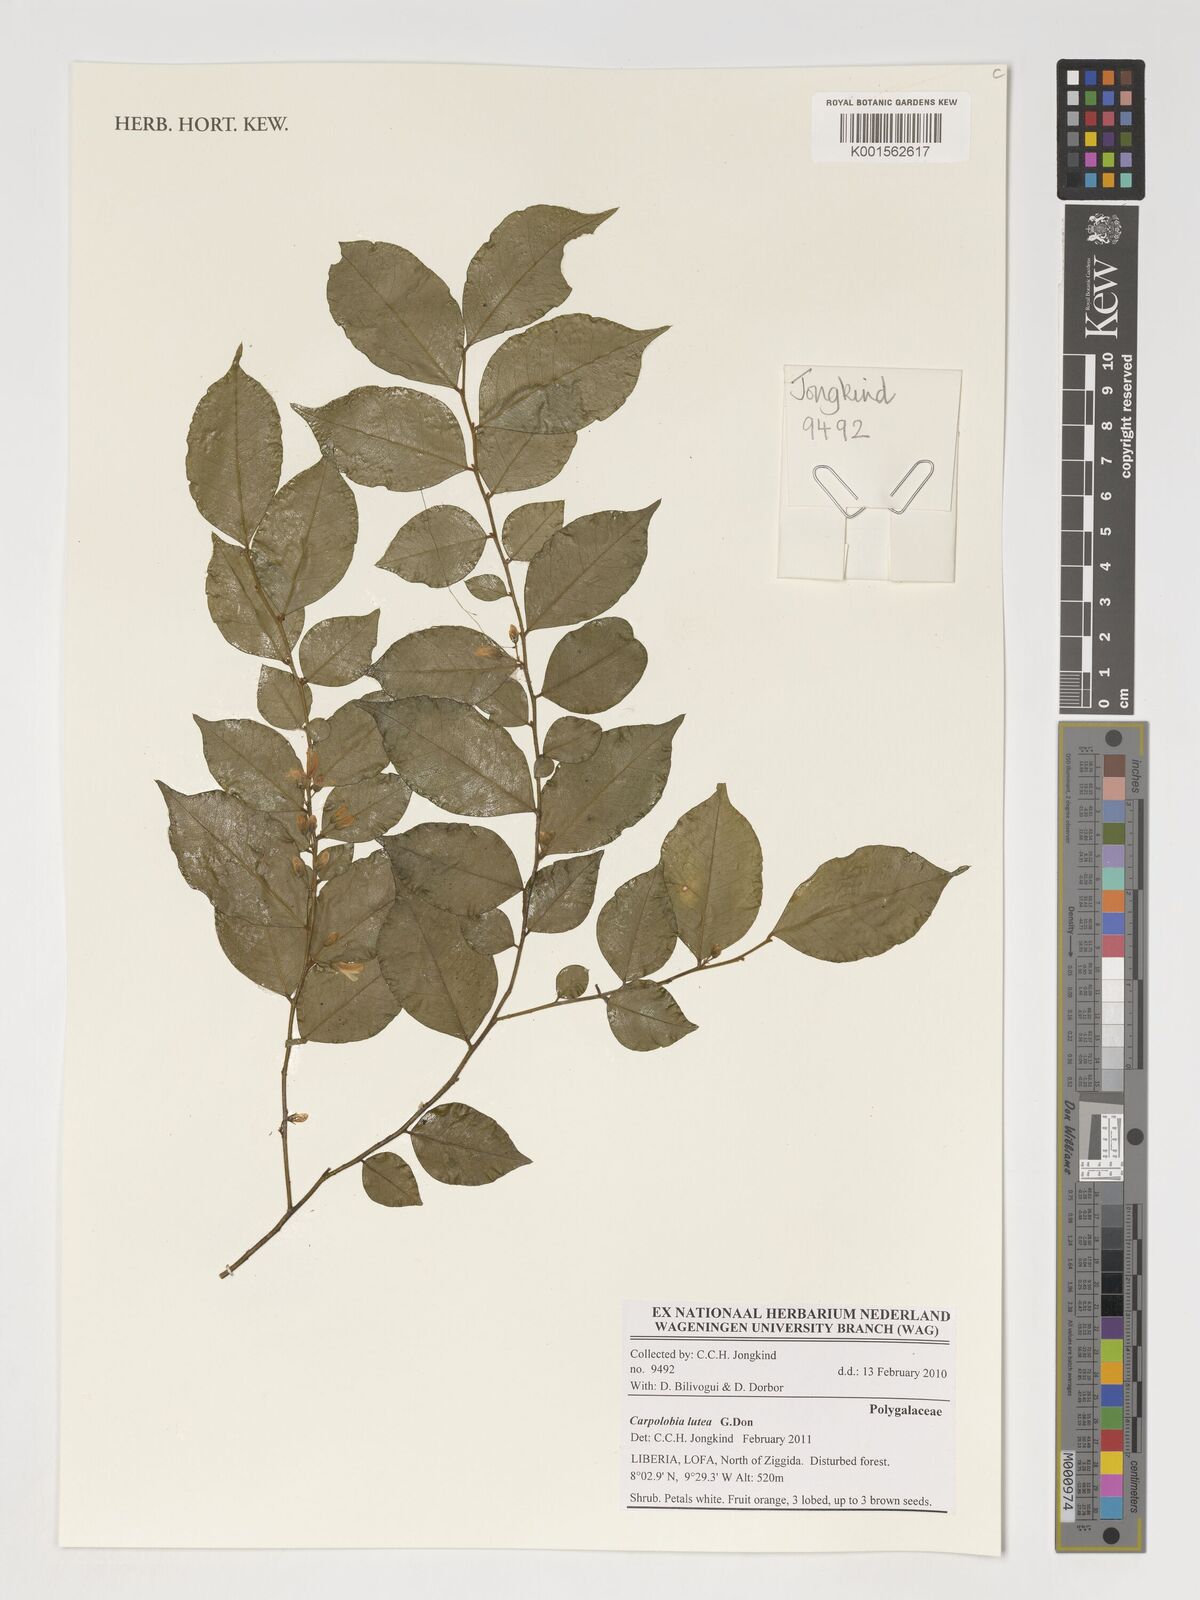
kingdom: Plantae
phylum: Tracheophyta
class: Magnoliopsida
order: Fabales
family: Polygalaceae
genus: Carpolobia
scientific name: Carpolobia lutea
